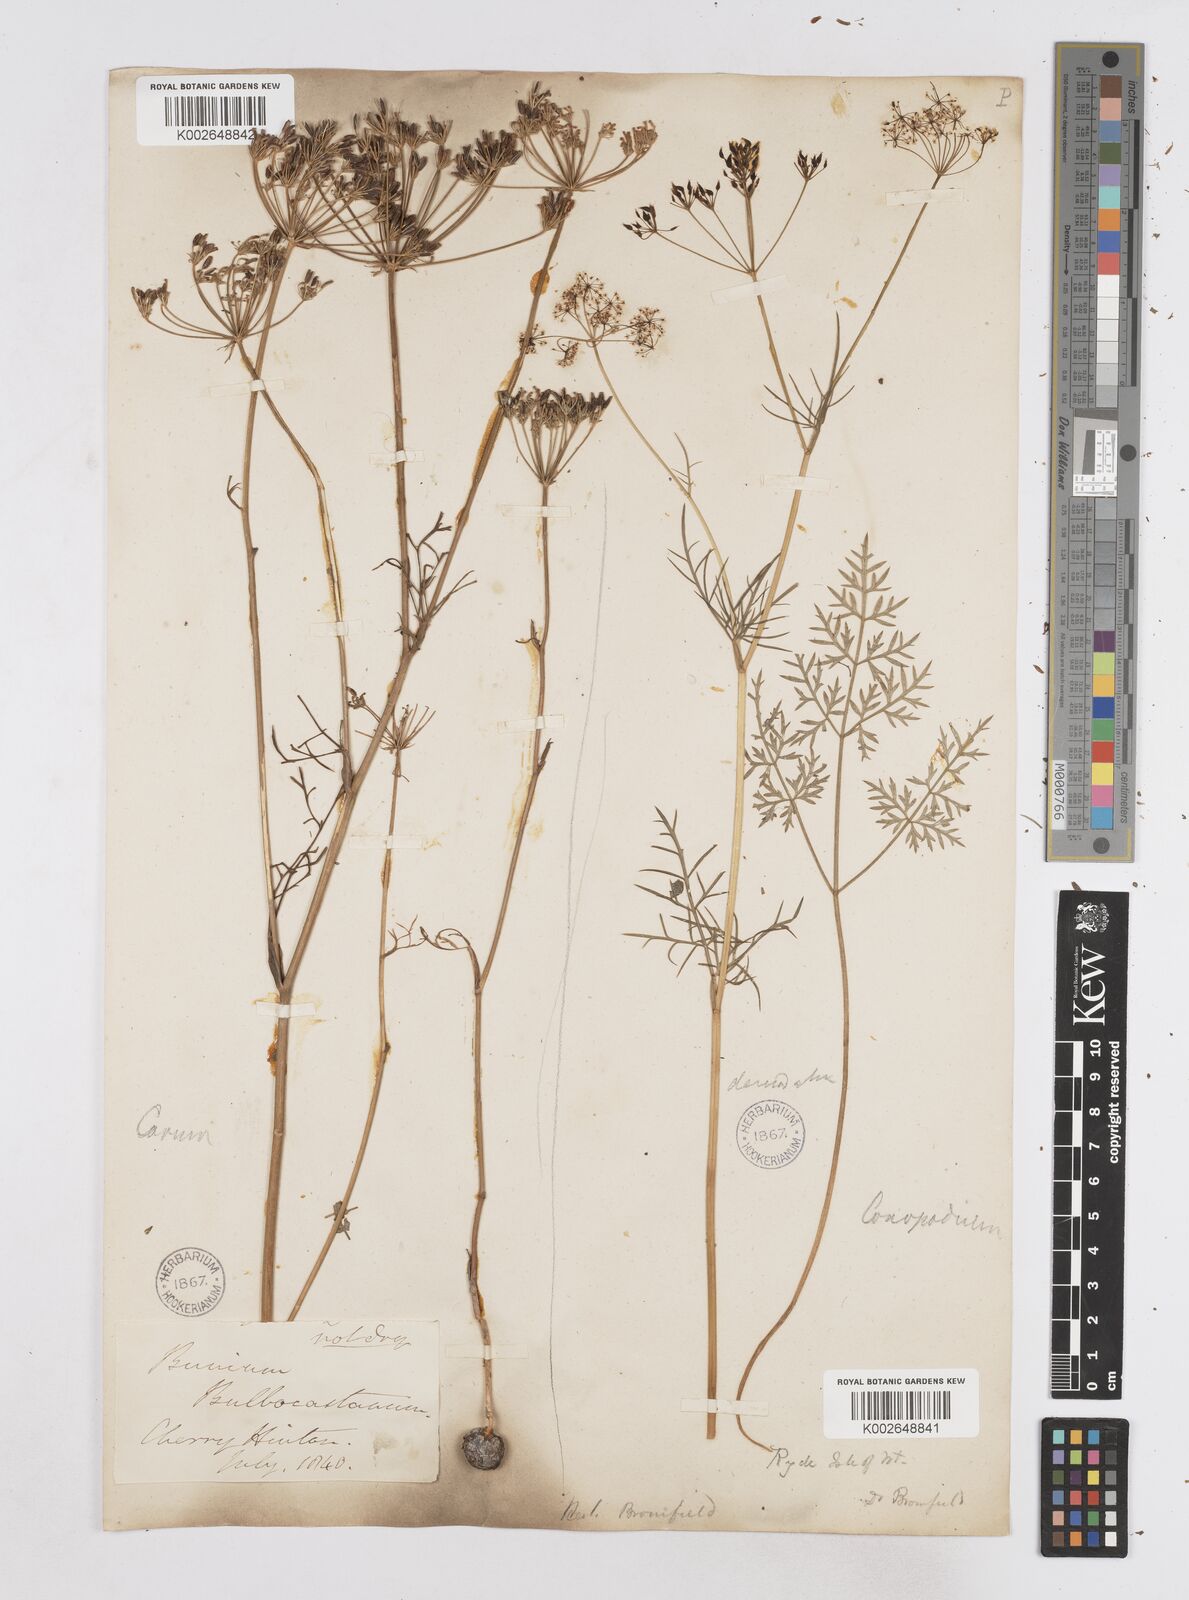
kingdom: Plantae
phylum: Tracheophyta
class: Magnoliopsida
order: Apiales
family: Apiaceae
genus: Bunium
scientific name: Bunium bulbocastanum
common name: Great pignut
